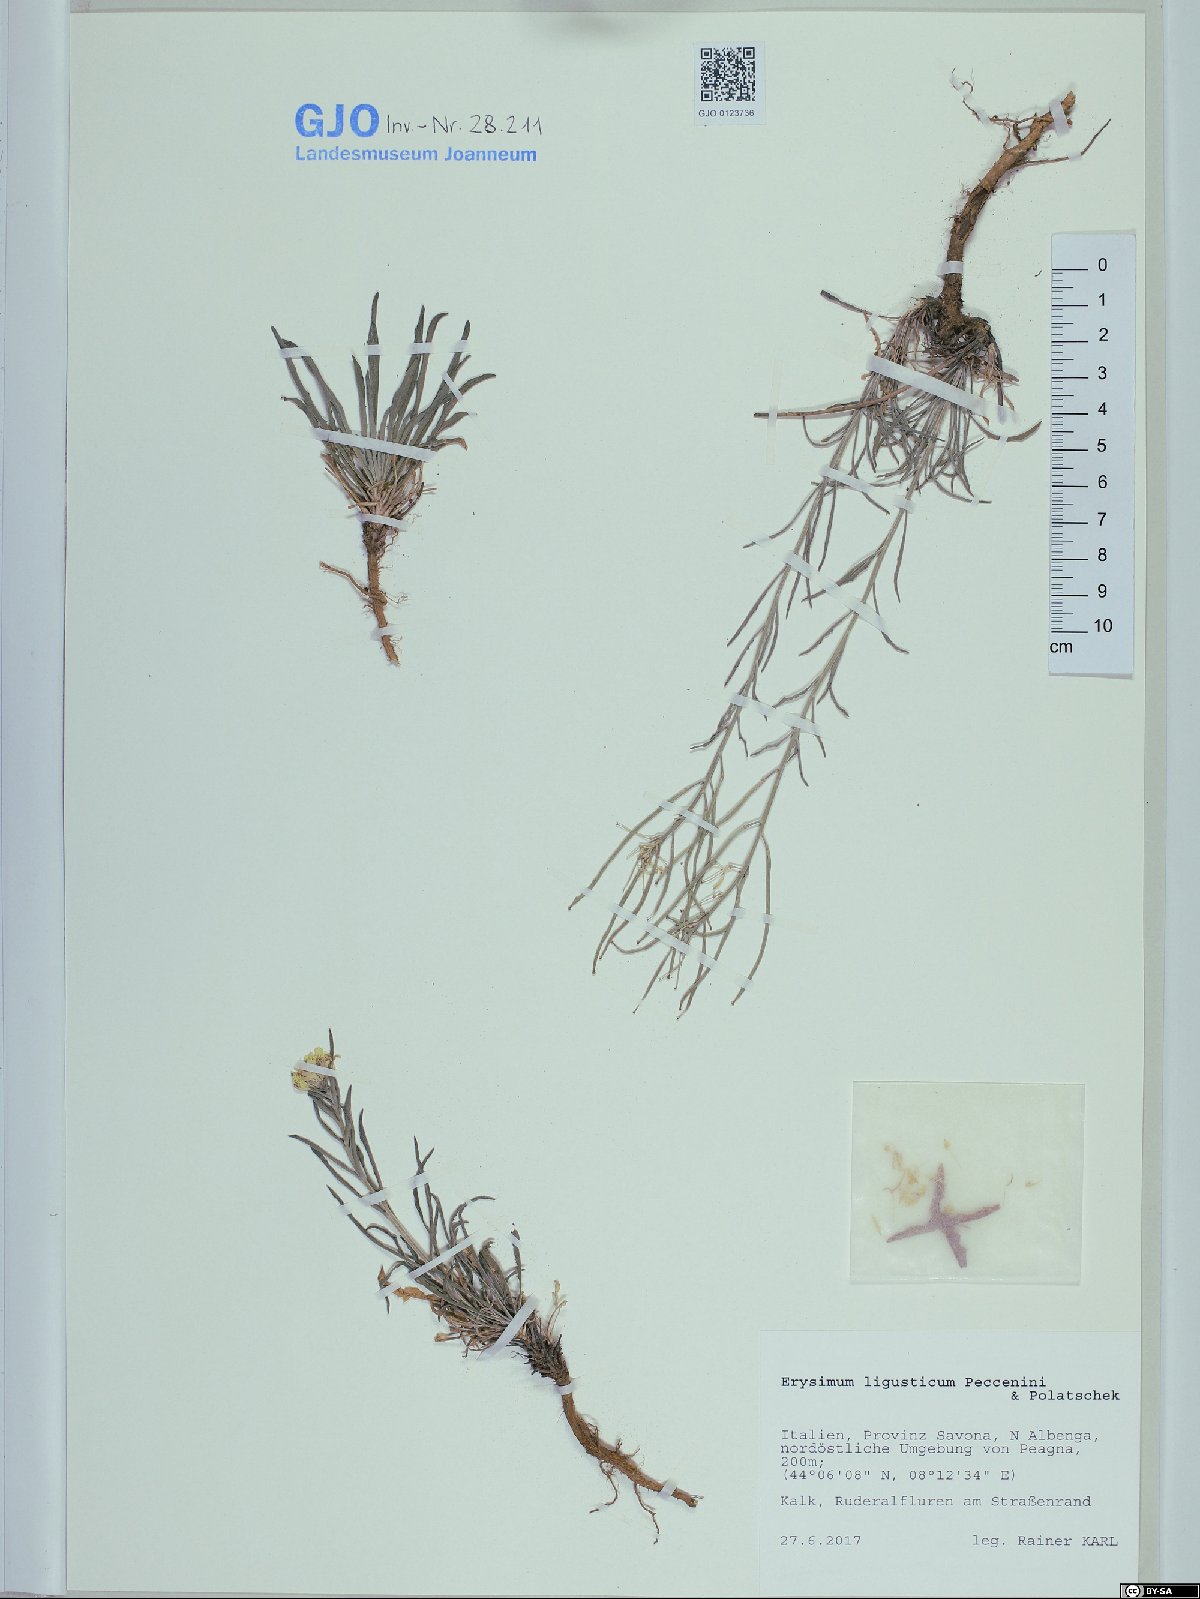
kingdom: Plantae
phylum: Tracheophyta
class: Magnoliopsida
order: Brassicales
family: Brassicaceae
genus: Erysimum
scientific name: Erysimum ligusticum
